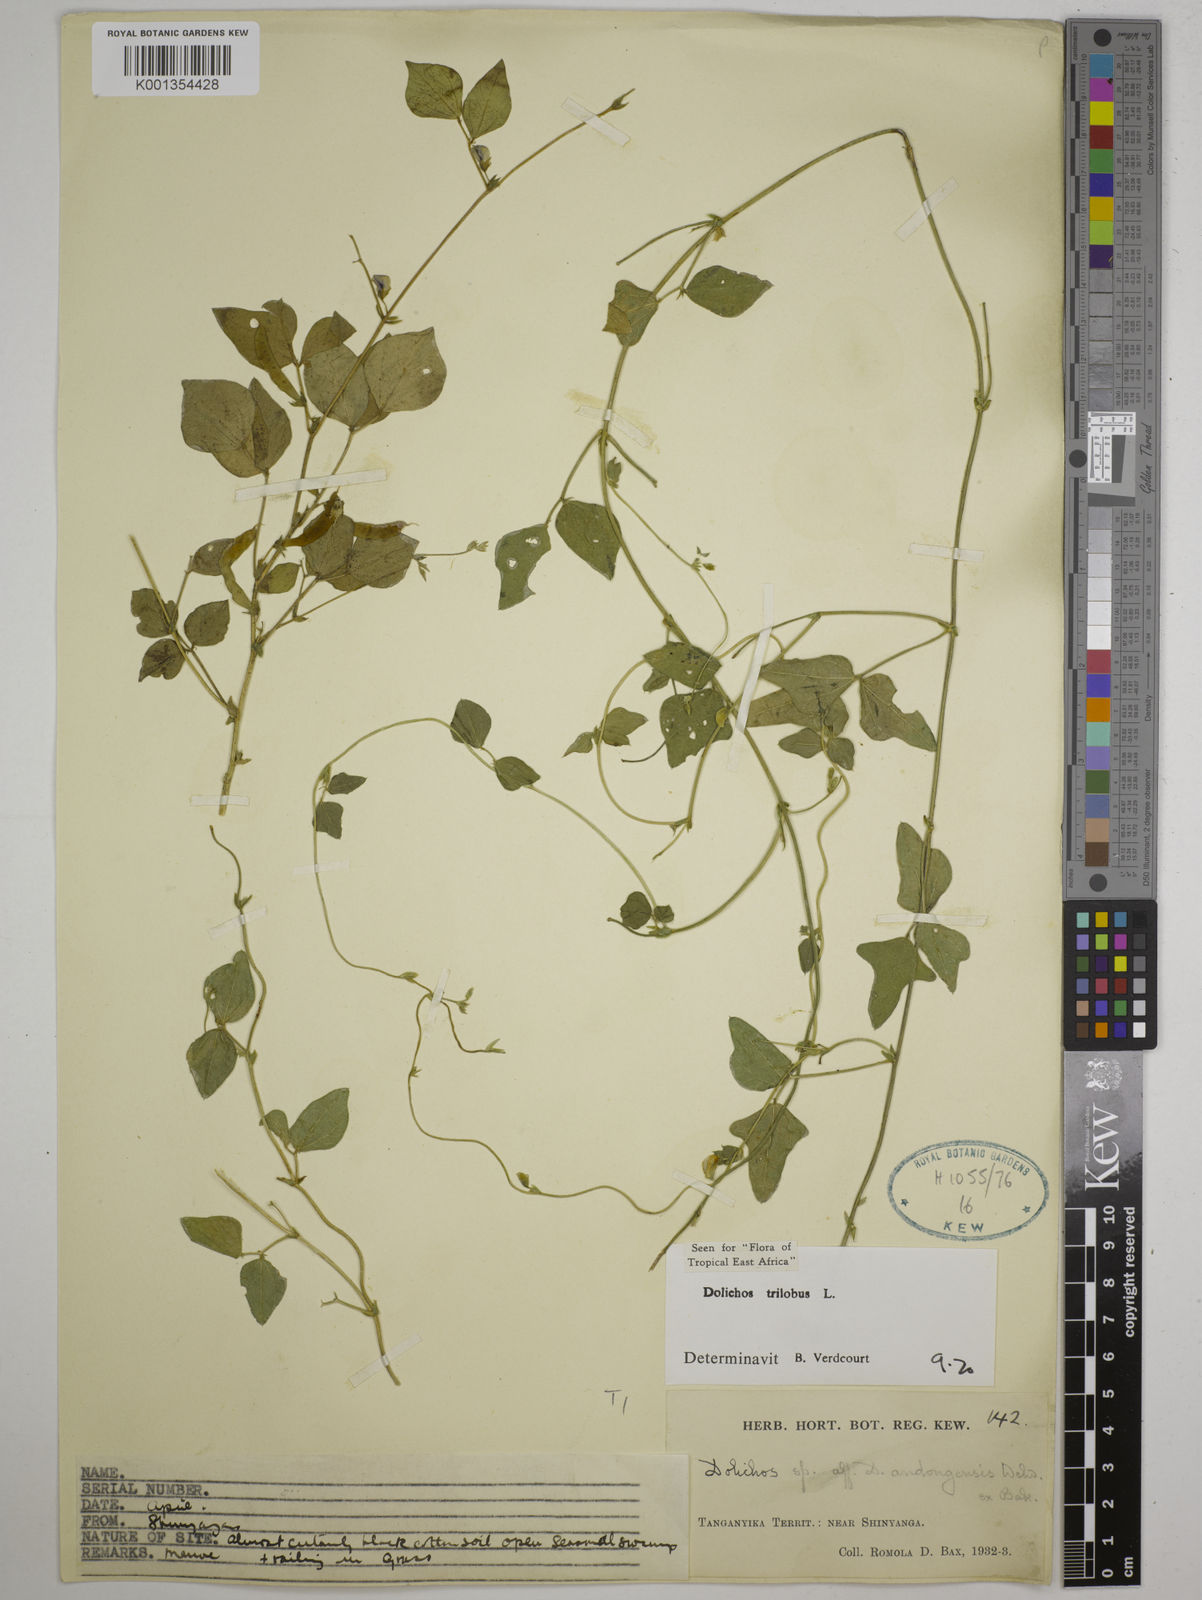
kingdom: Plantae
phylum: Tracheophyta
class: Magnoliopsida
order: Fabales
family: Fabaceae
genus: Dolichos
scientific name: Dolichos
